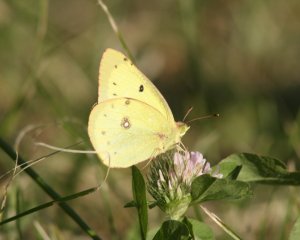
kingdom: Animalia
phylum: Arthropoda
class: Insecta
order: Lepidoptera
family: Pieridae
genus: Colias
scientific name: Colias philodice
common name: Clouded Sulphur
